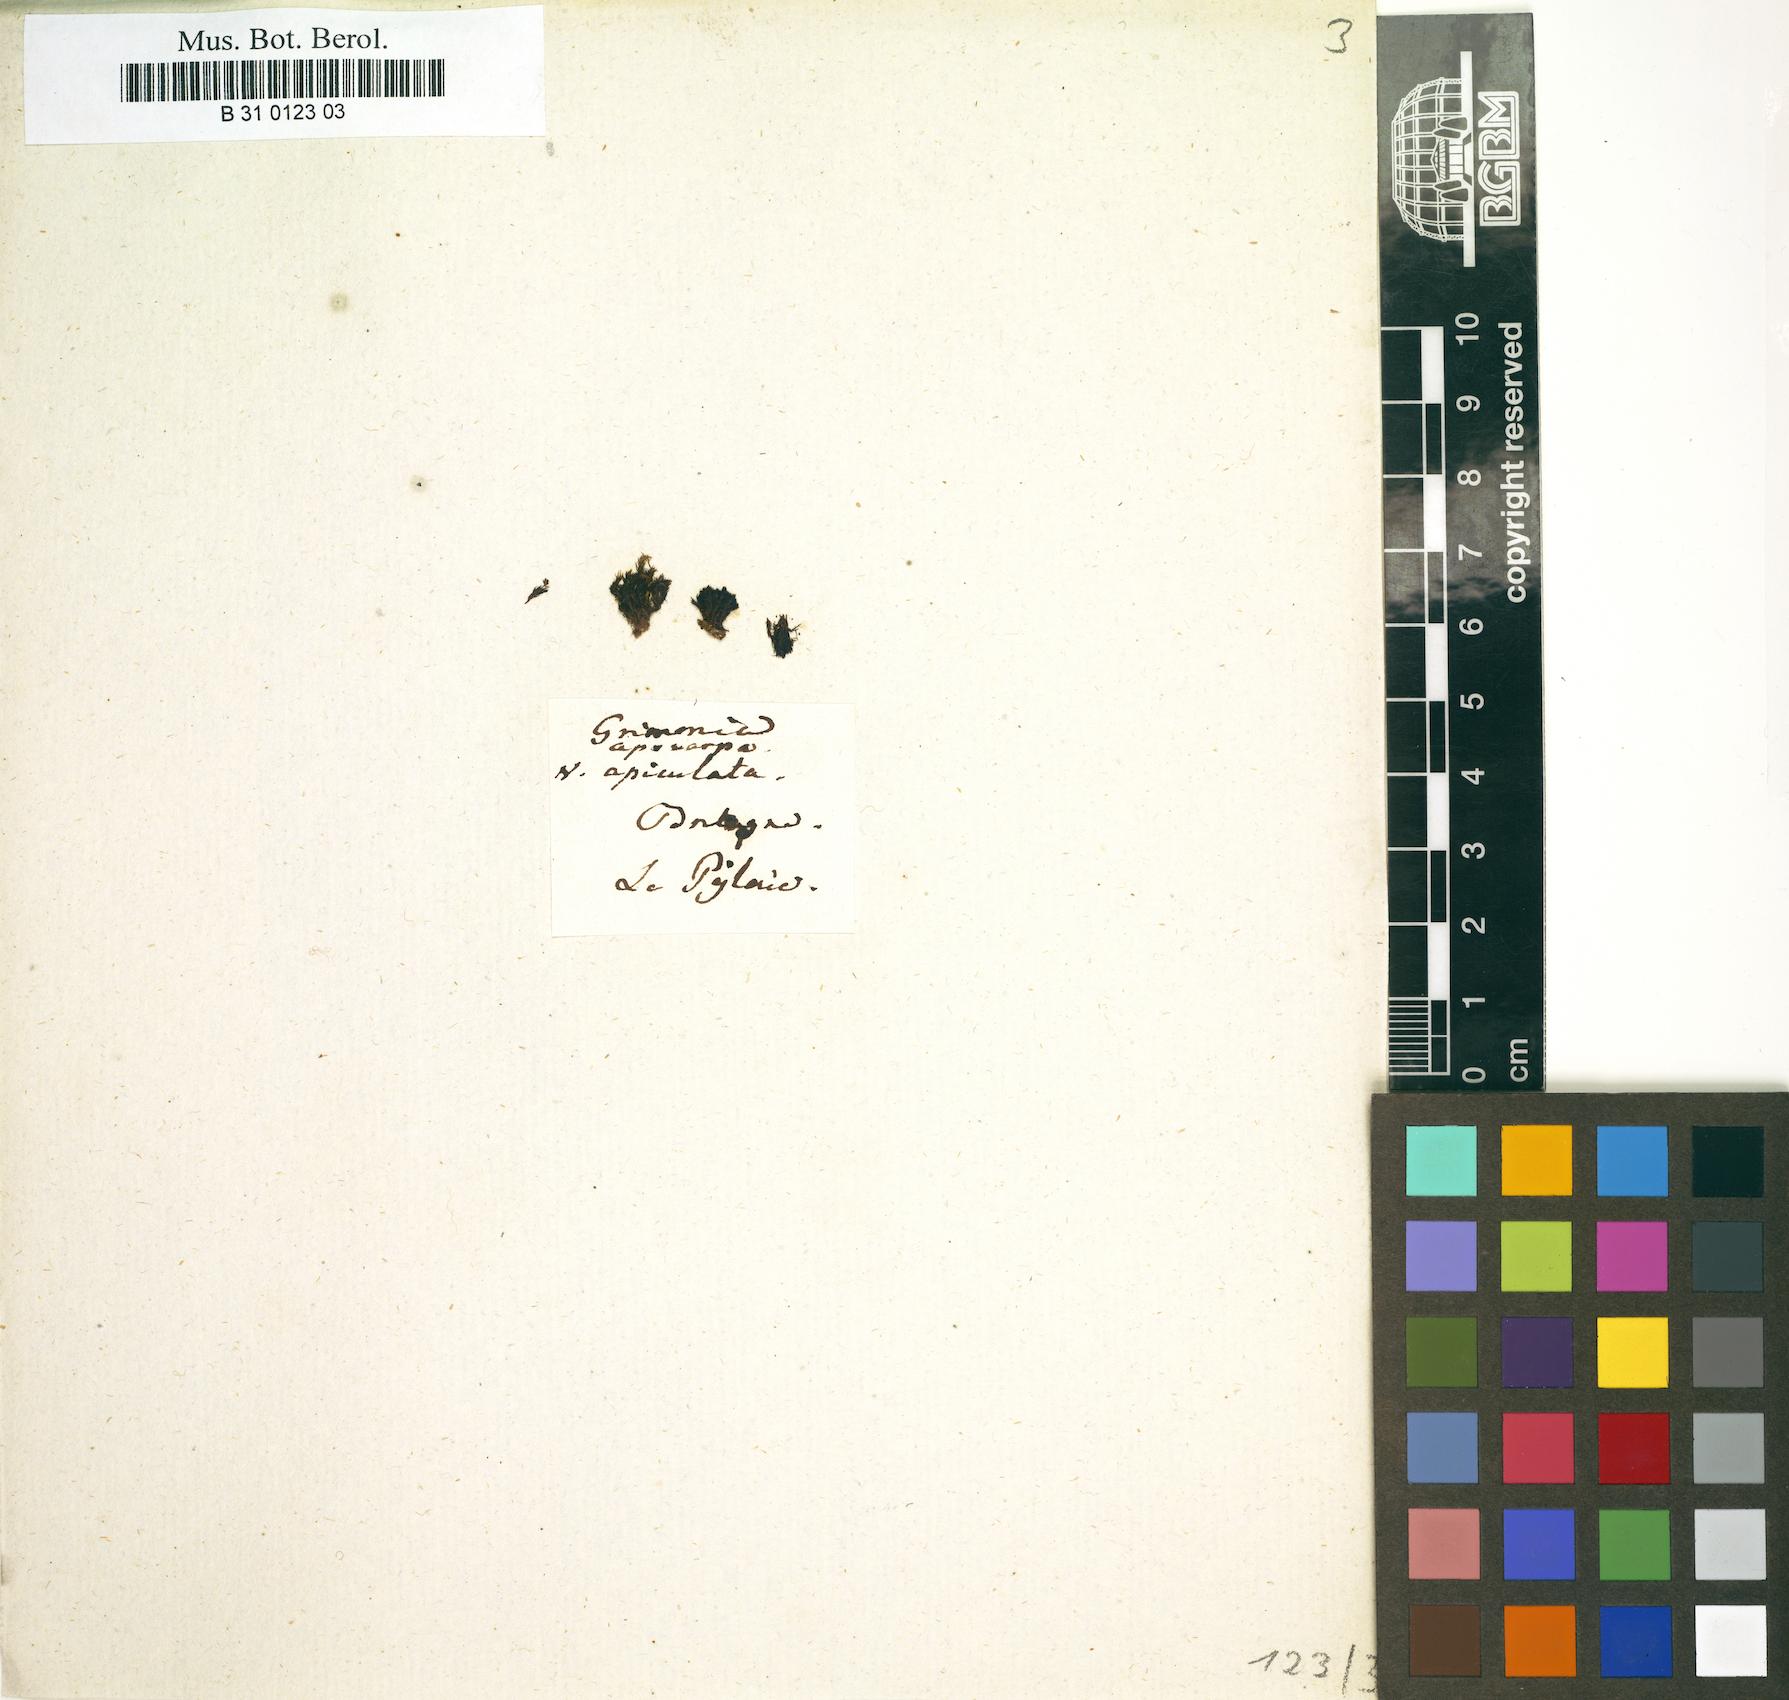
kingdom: Plantae
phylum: Bryophyta
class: Bryopsida
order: Grimmiales
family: Grimmiaceae
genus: Schistidium
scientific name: Schistidium apocarpum
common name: Radiate bloom moss
